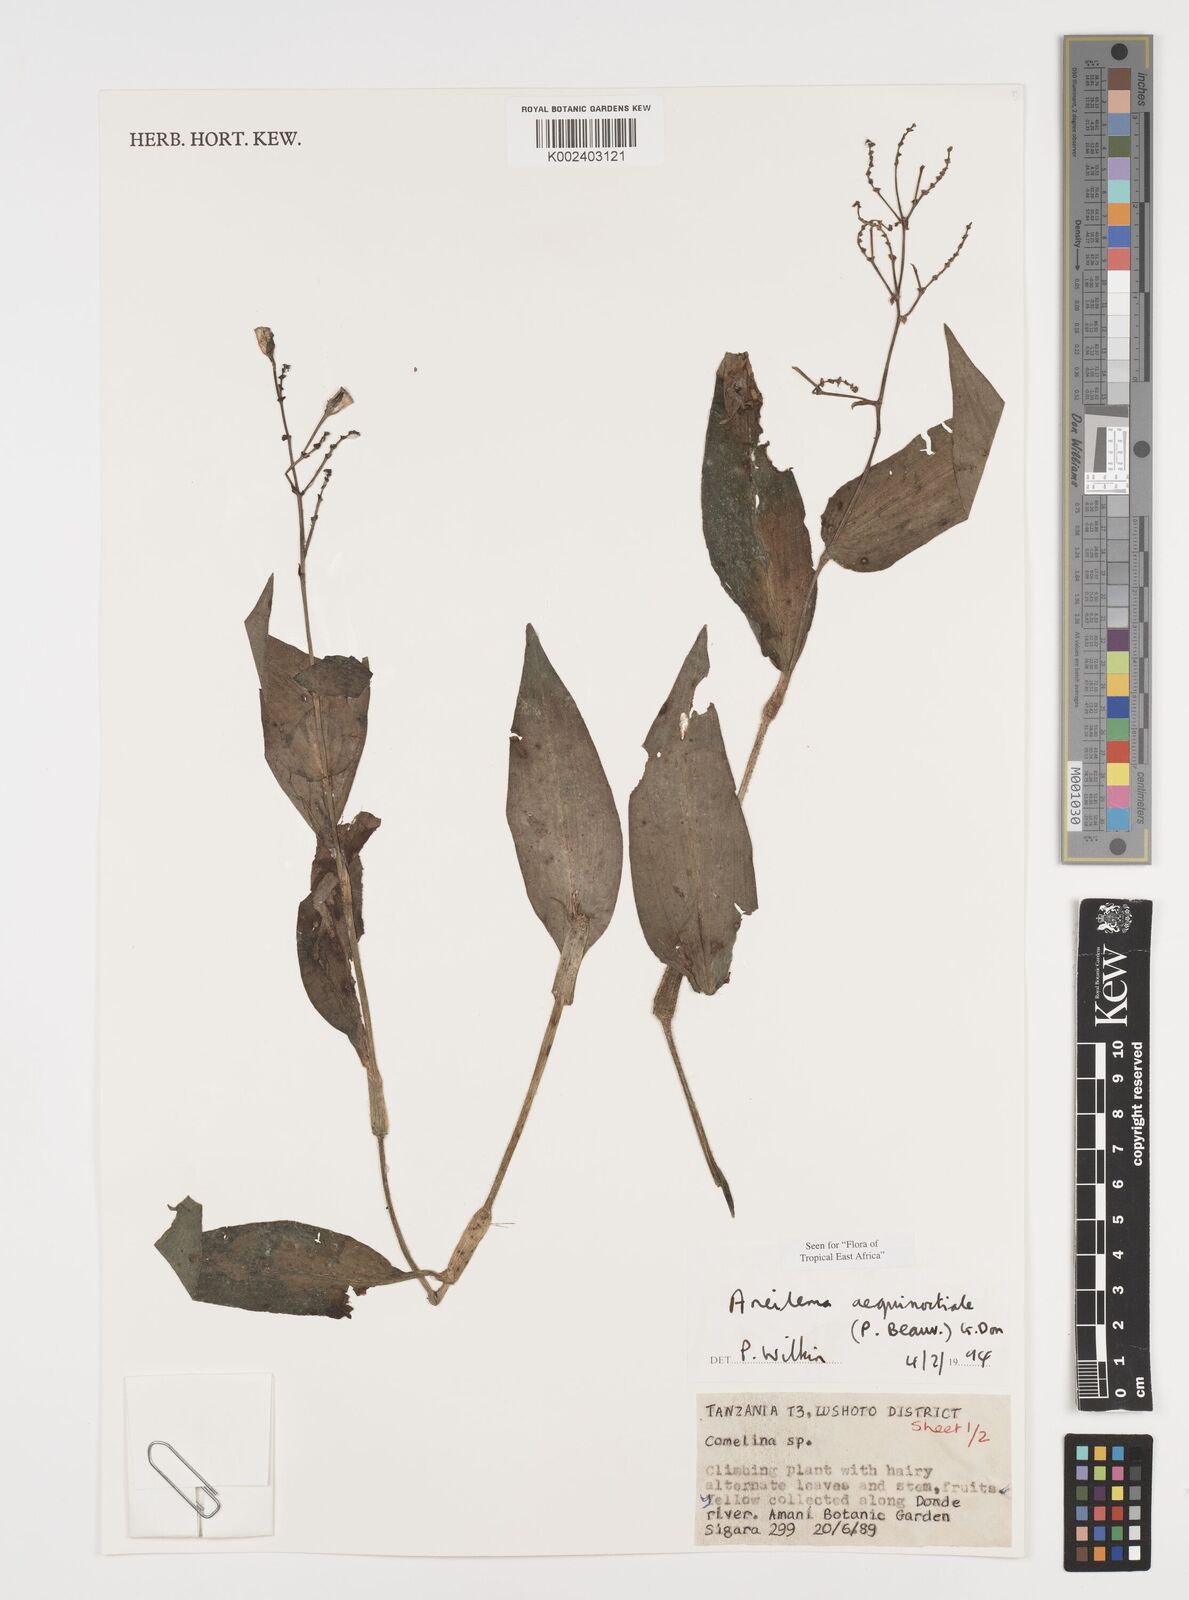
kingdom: Plantae
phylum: Tracheophyta
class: Liliopsida
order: Commelinales
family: Commelinaceae
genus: Aneilema
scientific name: Aneilema aequinoctiale
